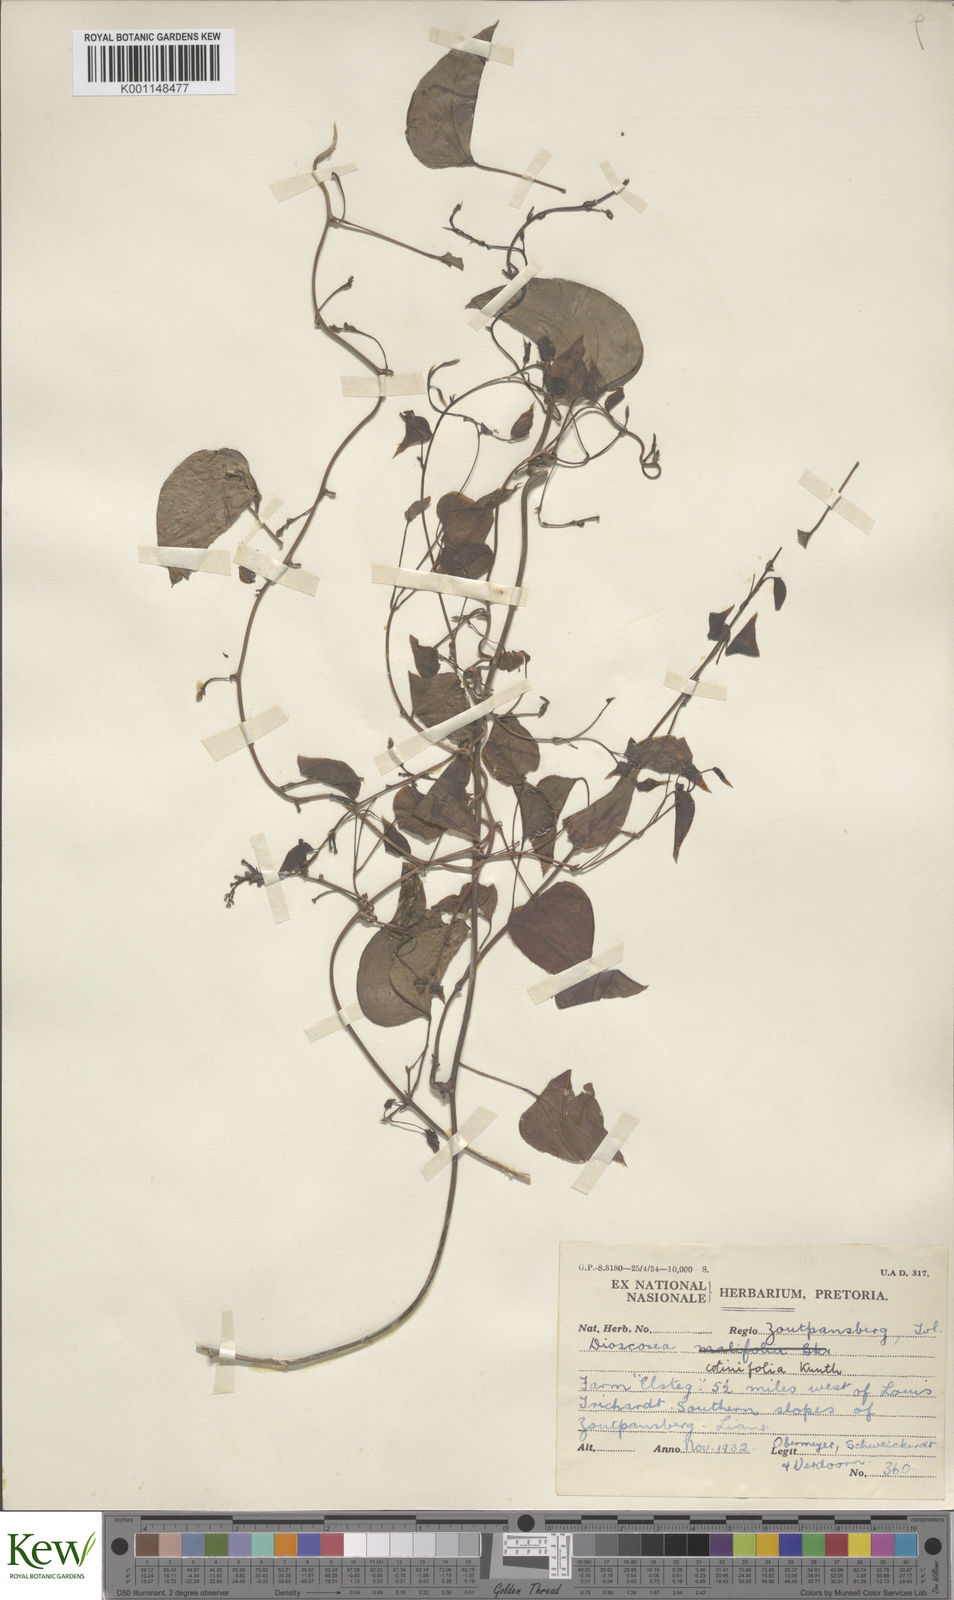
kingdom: Plantae
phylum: Tracheophyta
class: Liliopsida
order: Dioscoreales
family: Dioscoreaceae
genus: Dioscorea
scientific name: Dioscorea cotinifolia
